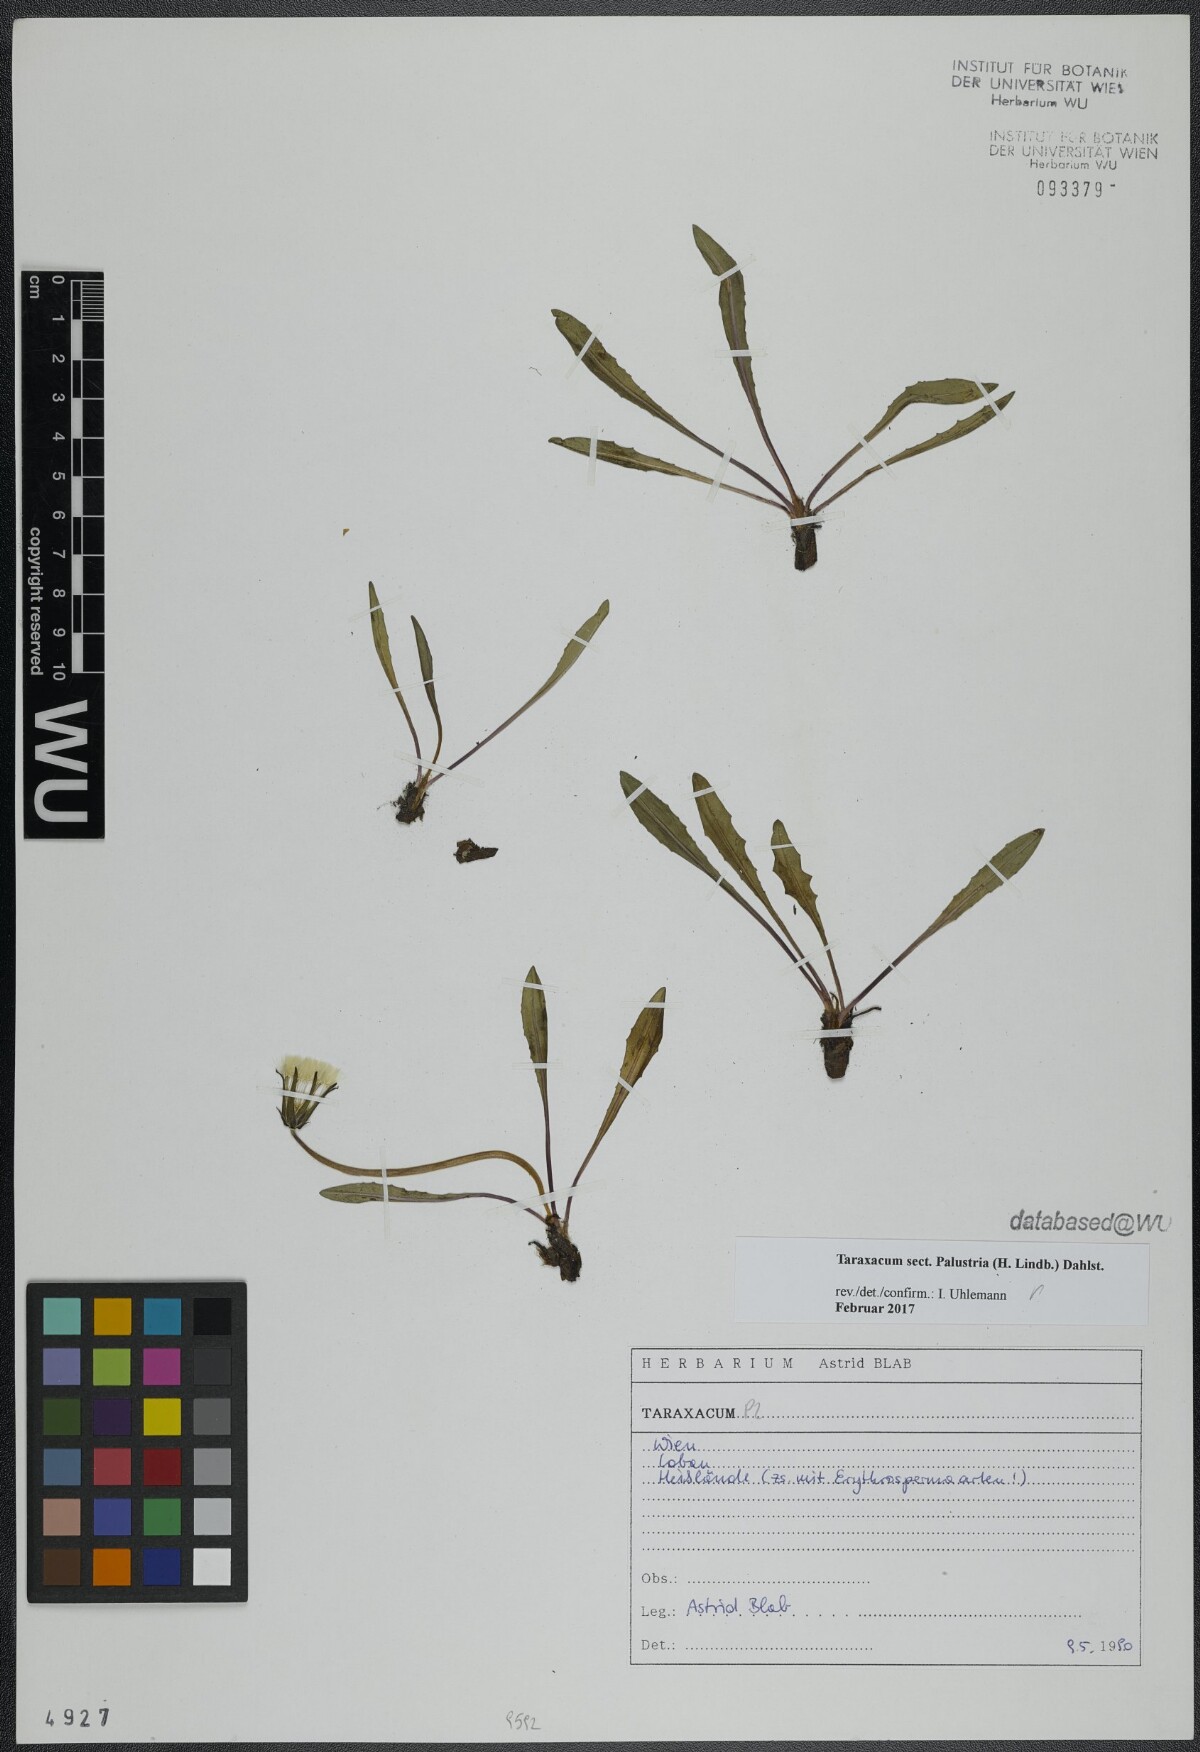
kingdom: Plantae
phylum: Tracheophyta
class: Magnoliopsida
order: Asterales
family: Asteraceae
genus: Taraxacum
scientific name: Taraxacum
